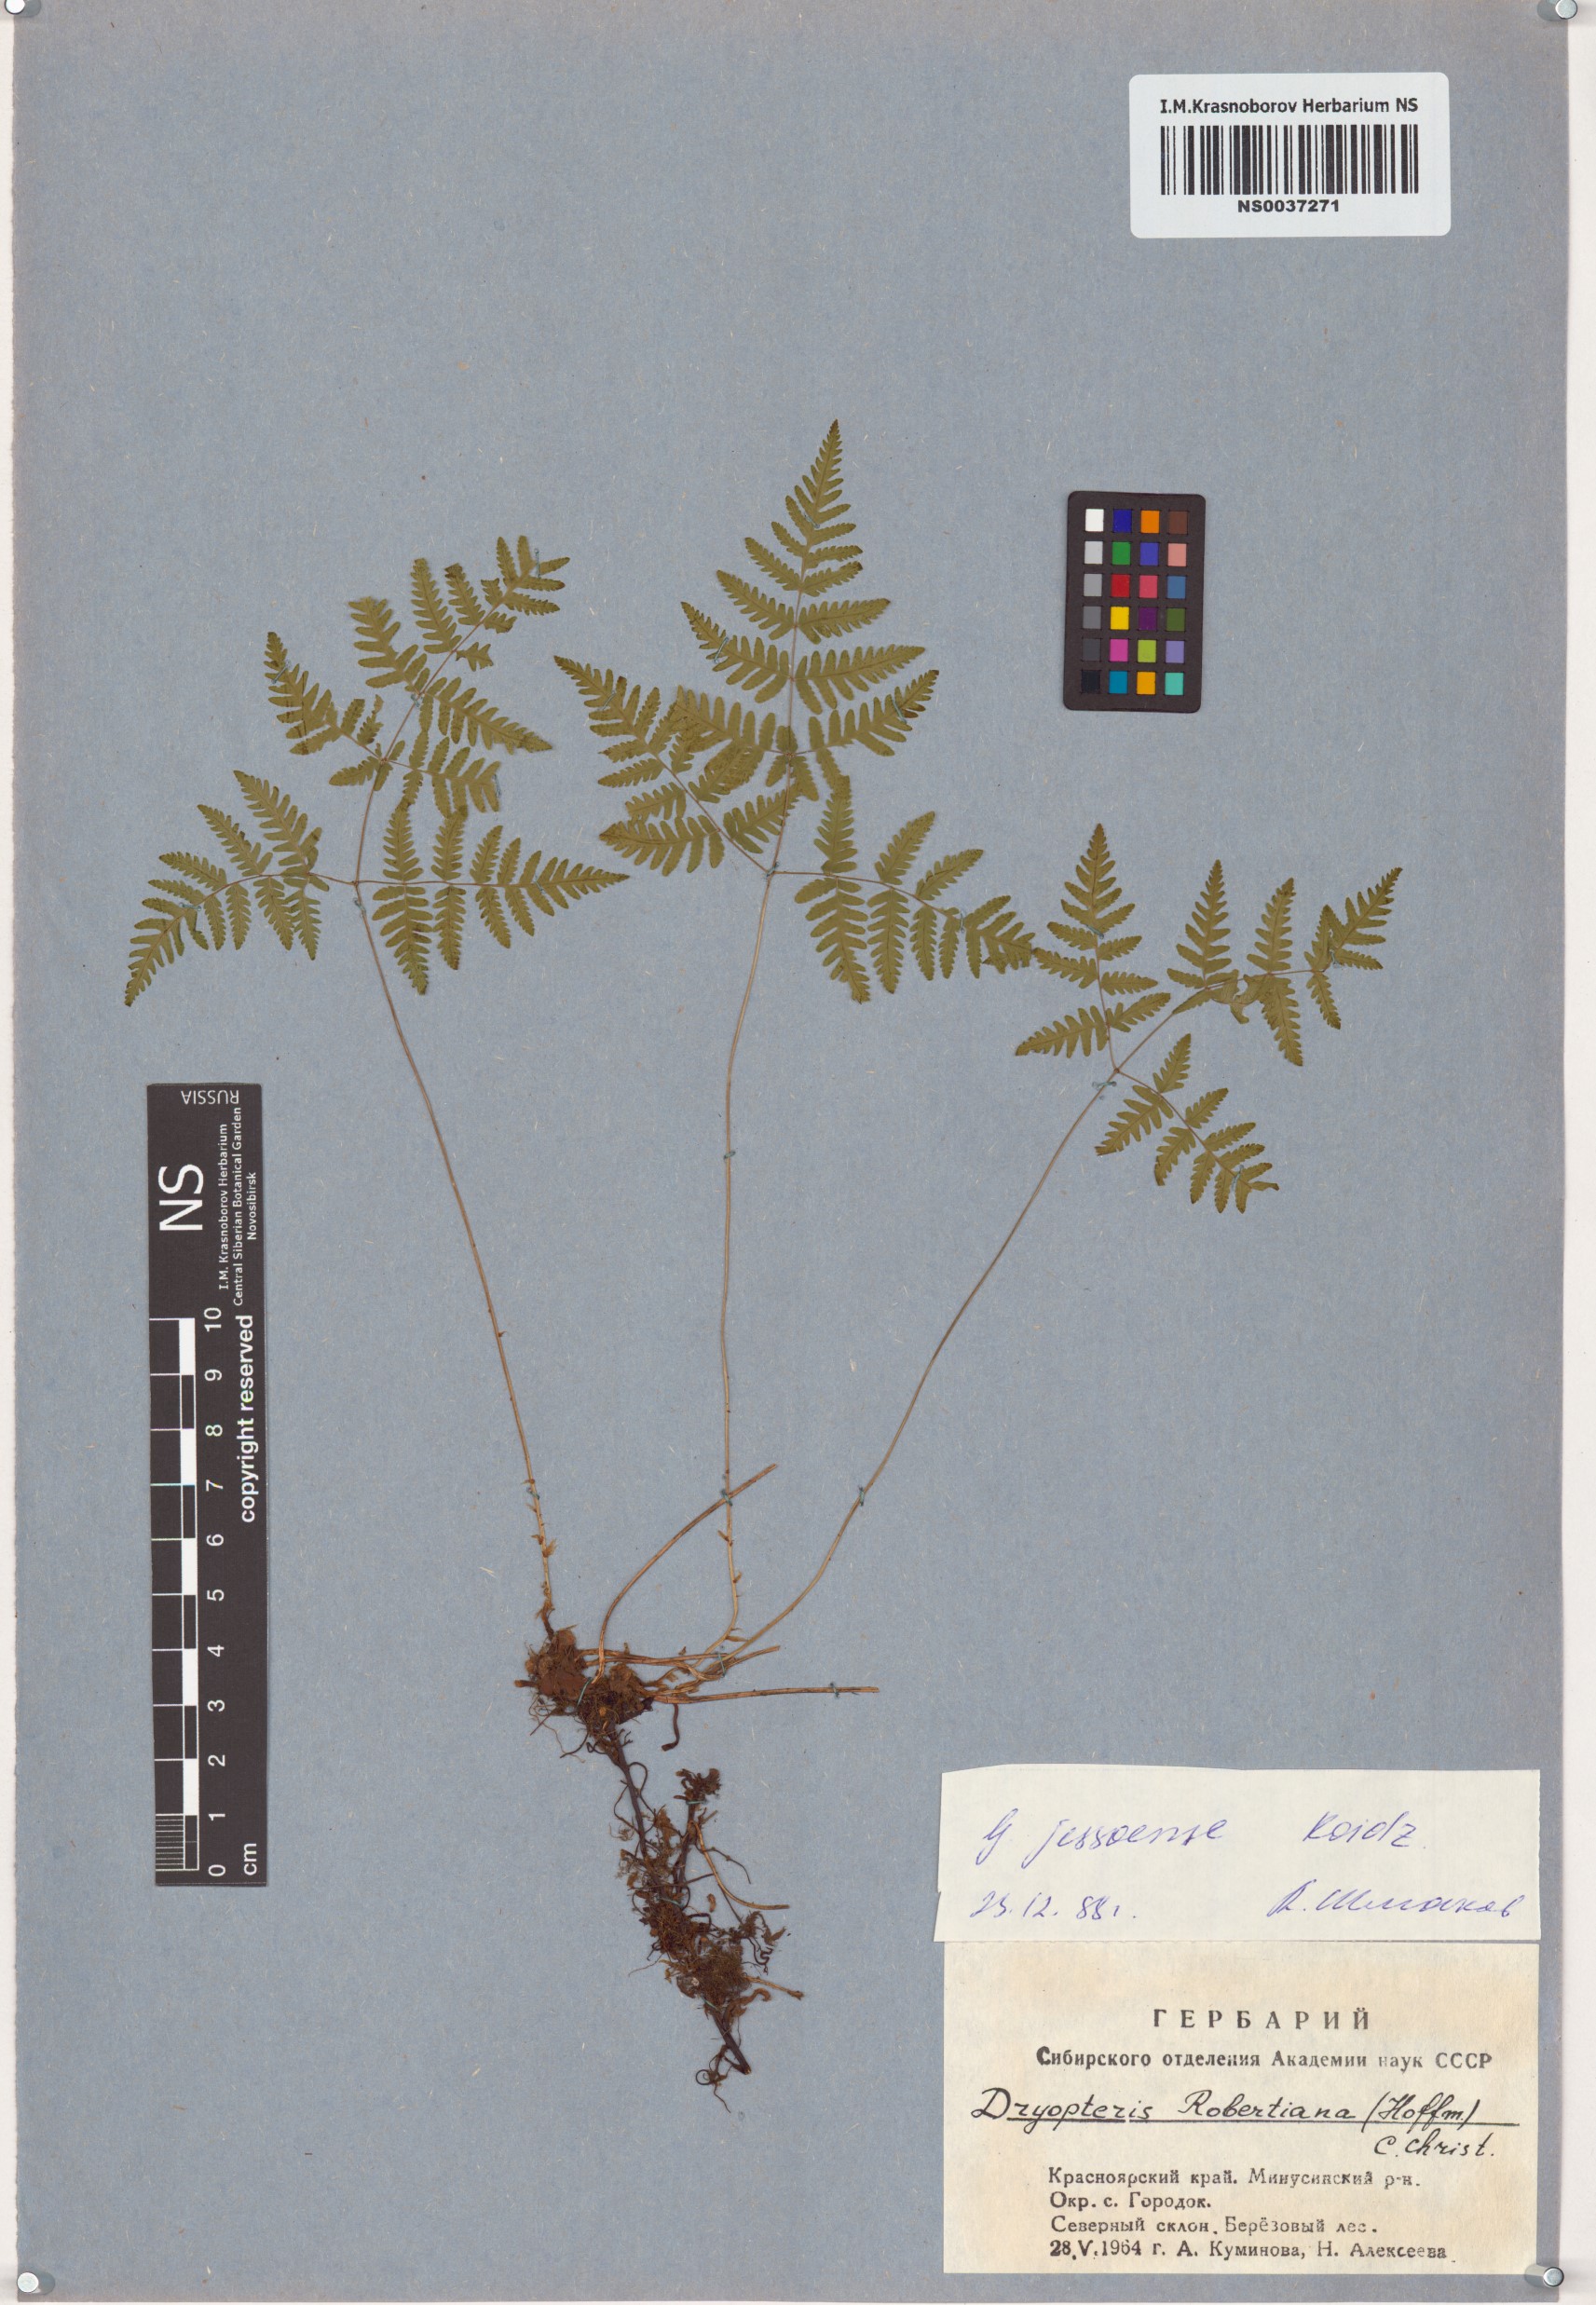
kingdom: Plantae
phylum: Tracheophyta
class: Polypodiopsida
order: Polypodiales
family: Cystopteridaceae
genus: Gymnocarpium
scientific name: Gymnocarpium jessoense
